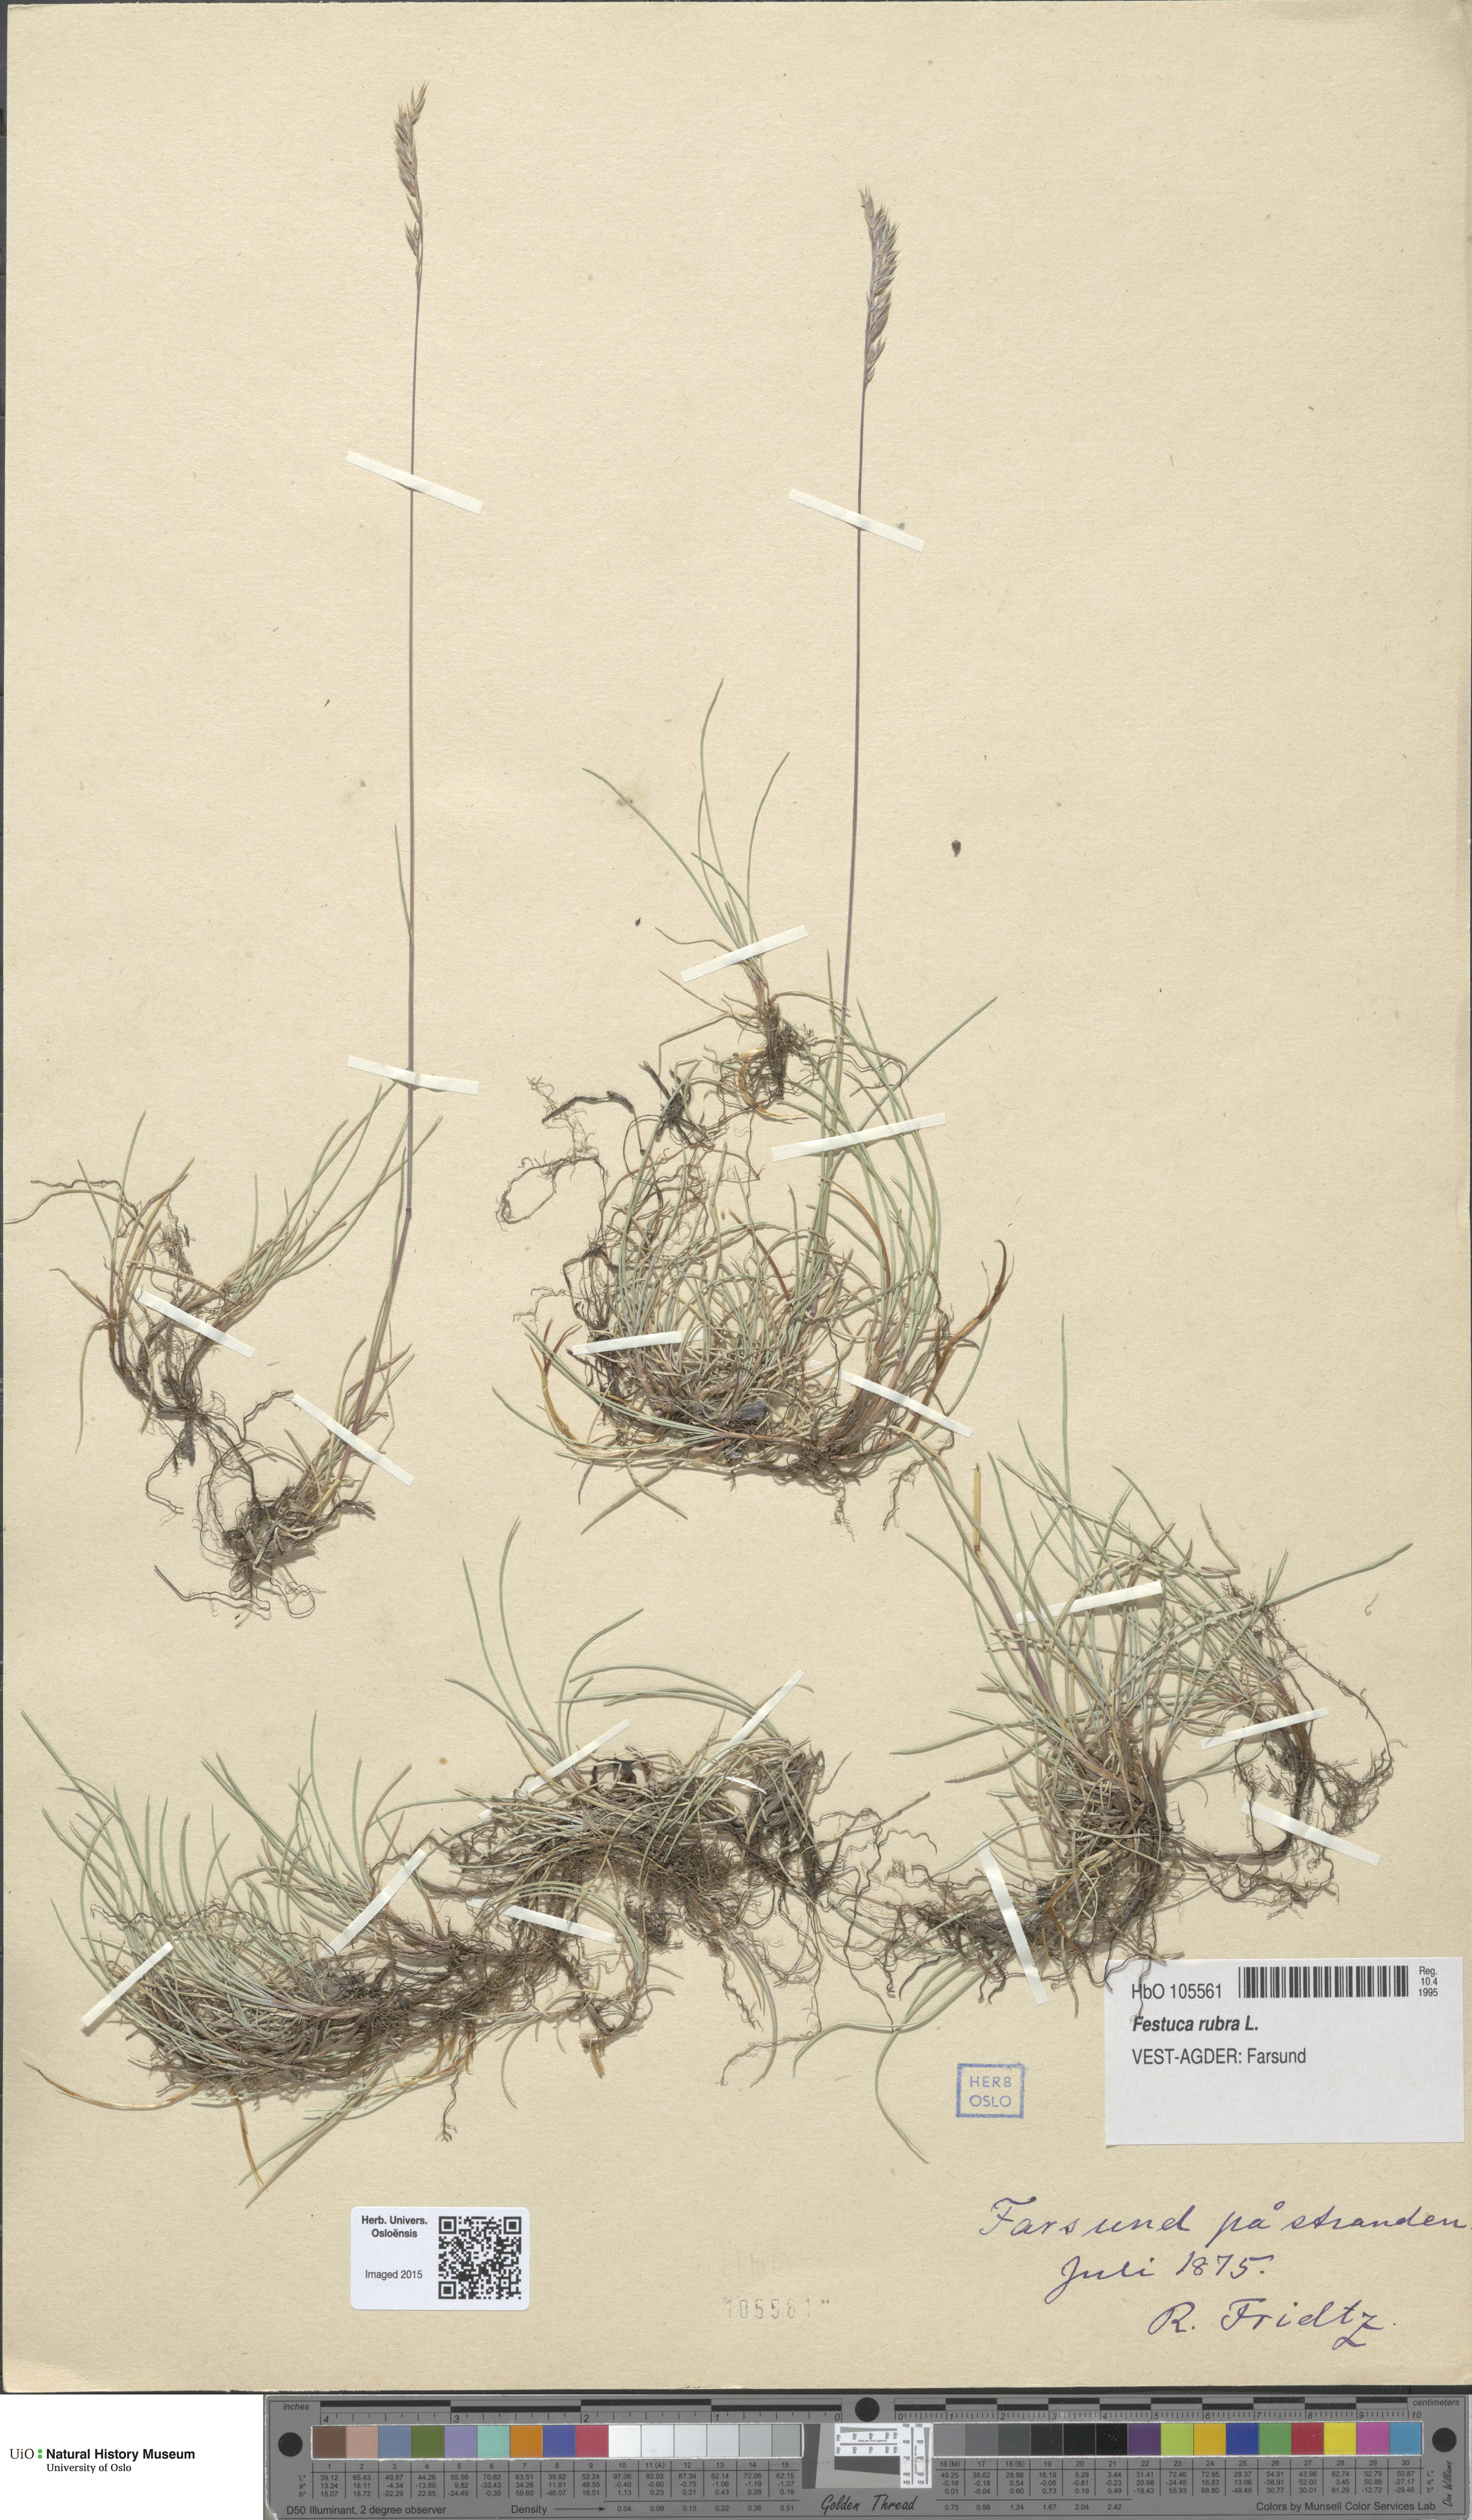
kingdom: Plantae
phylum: Tracheophyta
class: Liliopsida
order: Poales
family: Poaceae
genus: Festuca
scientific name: Festuca rubra
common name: Red fescue
